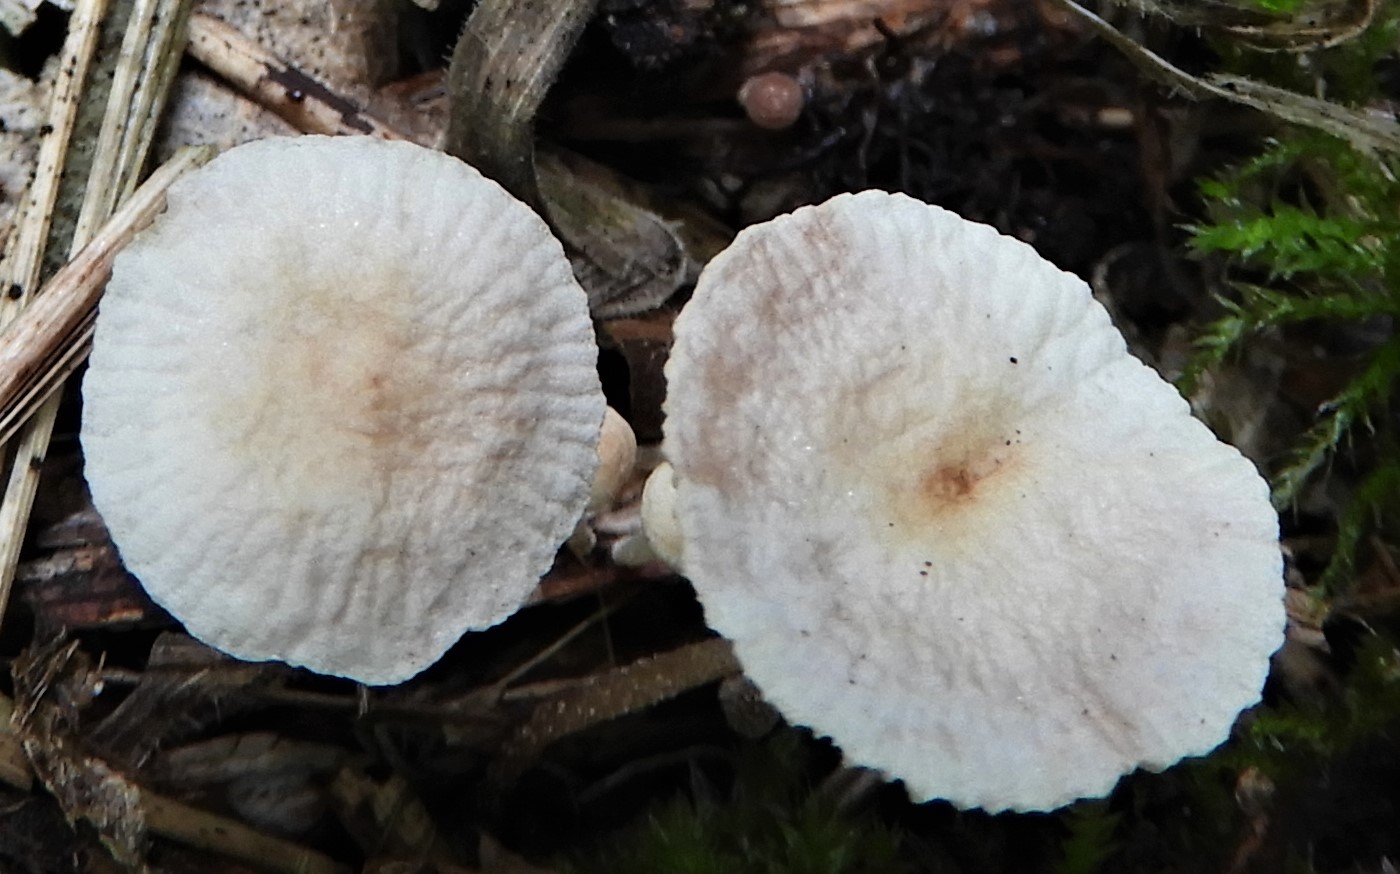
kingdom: Fungi
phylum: Basidiomycota
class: Agaricomycetes
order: Agaricales
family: Omphalotaceae
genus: Collybiopsis
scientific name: Collybiopsis ramealis
